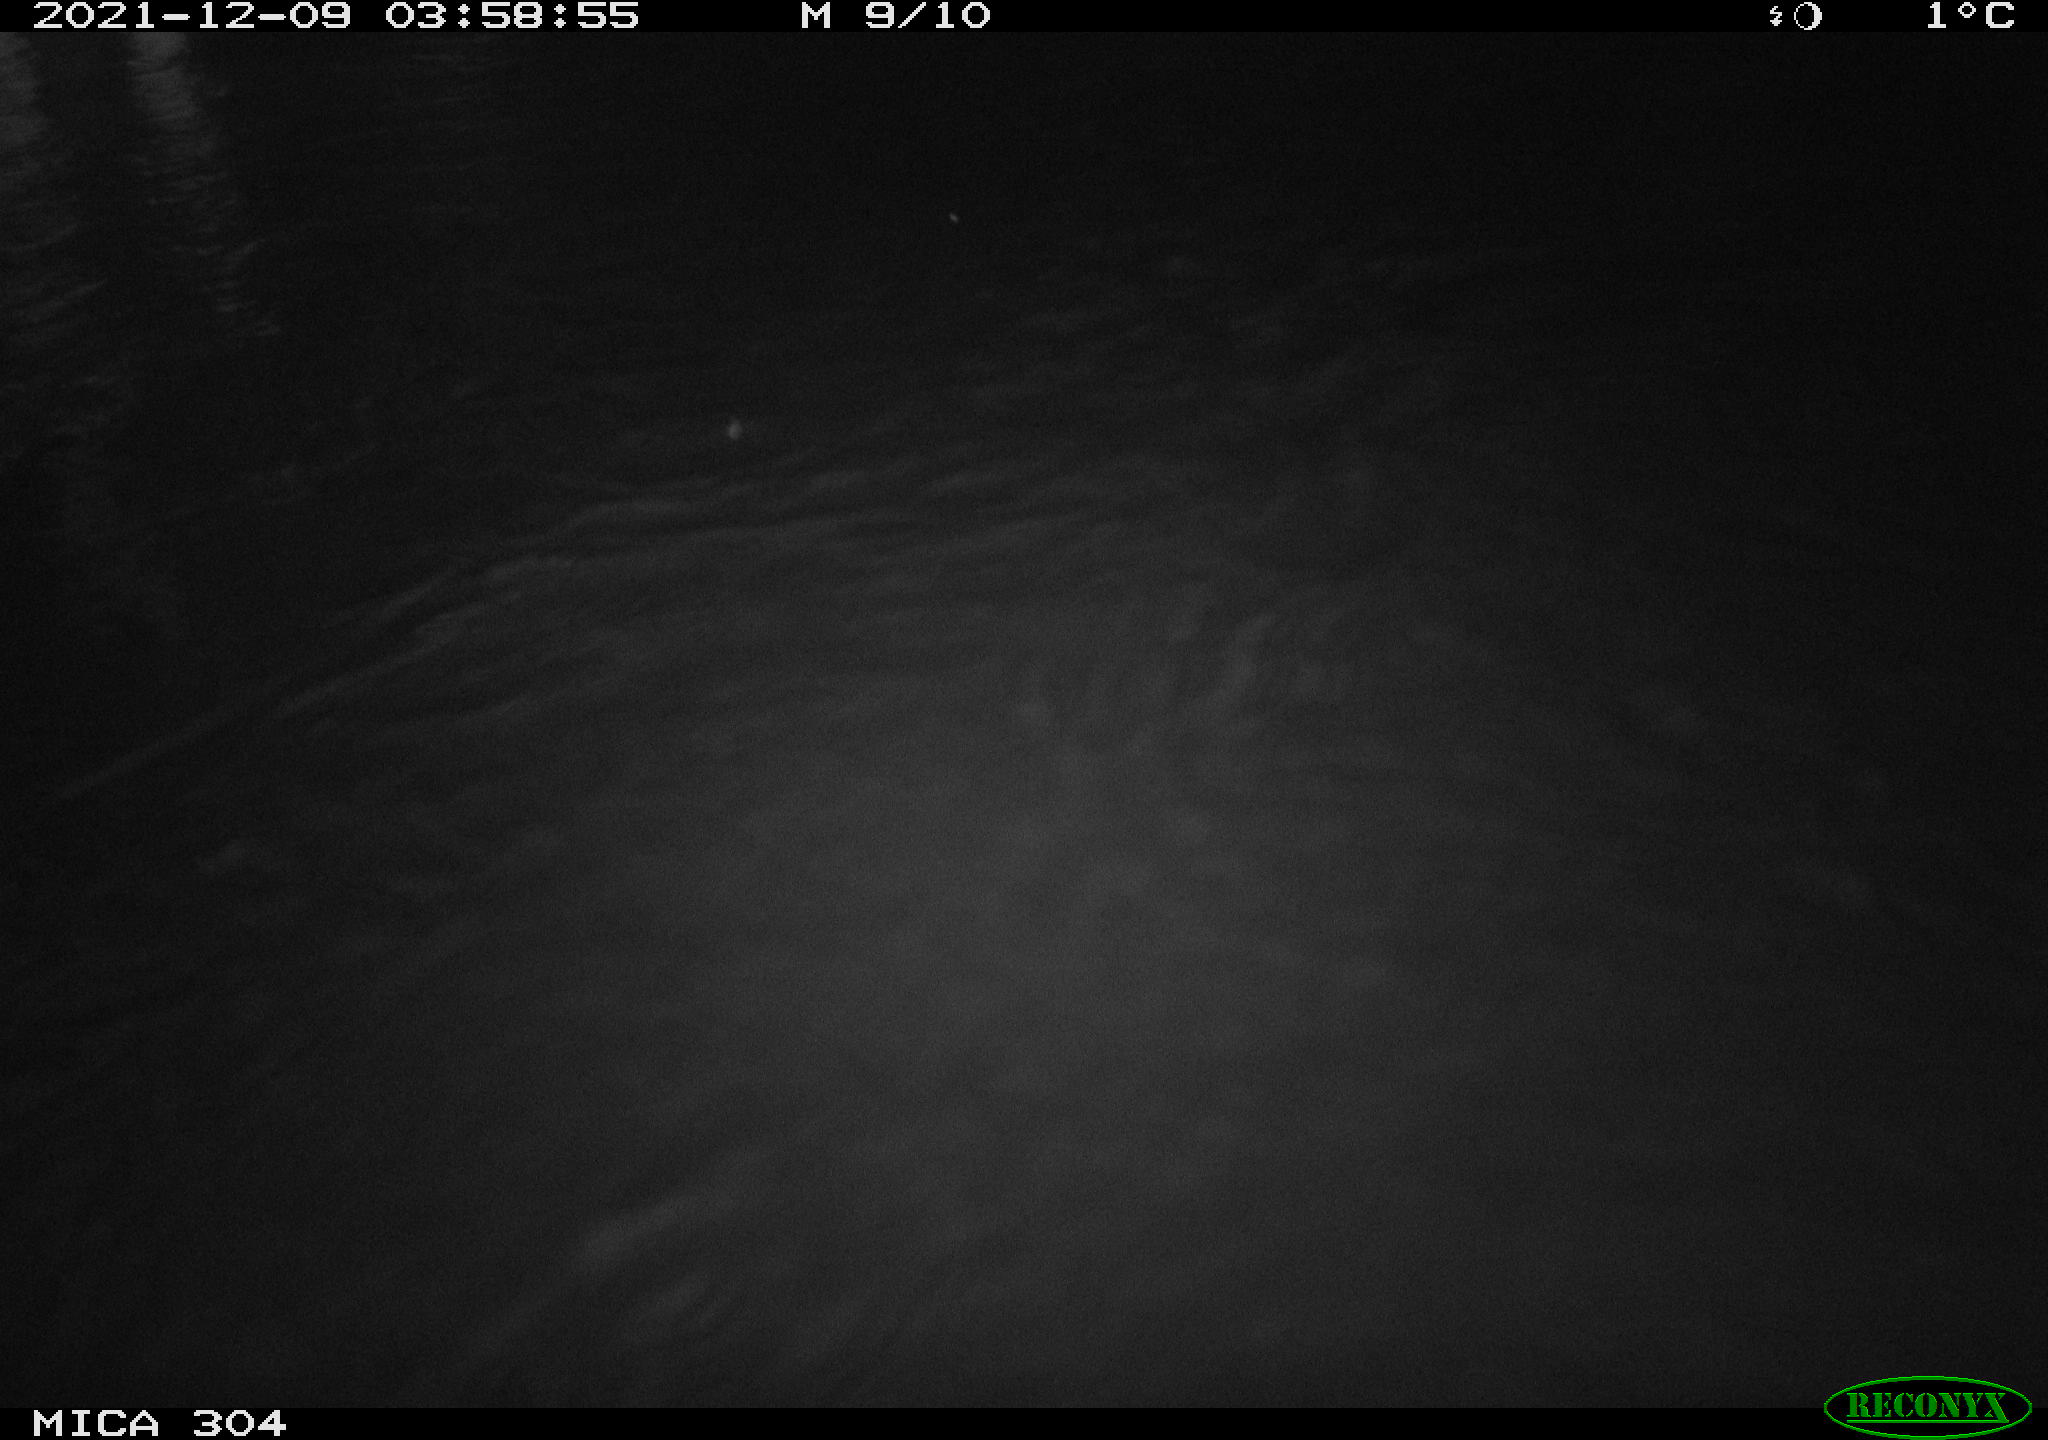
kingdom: Animalia
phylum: Chordata
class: Mammalia
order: Rodentia
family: Muridae
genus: Rattus
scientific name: Rattus norvegicus
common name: Brown rat
